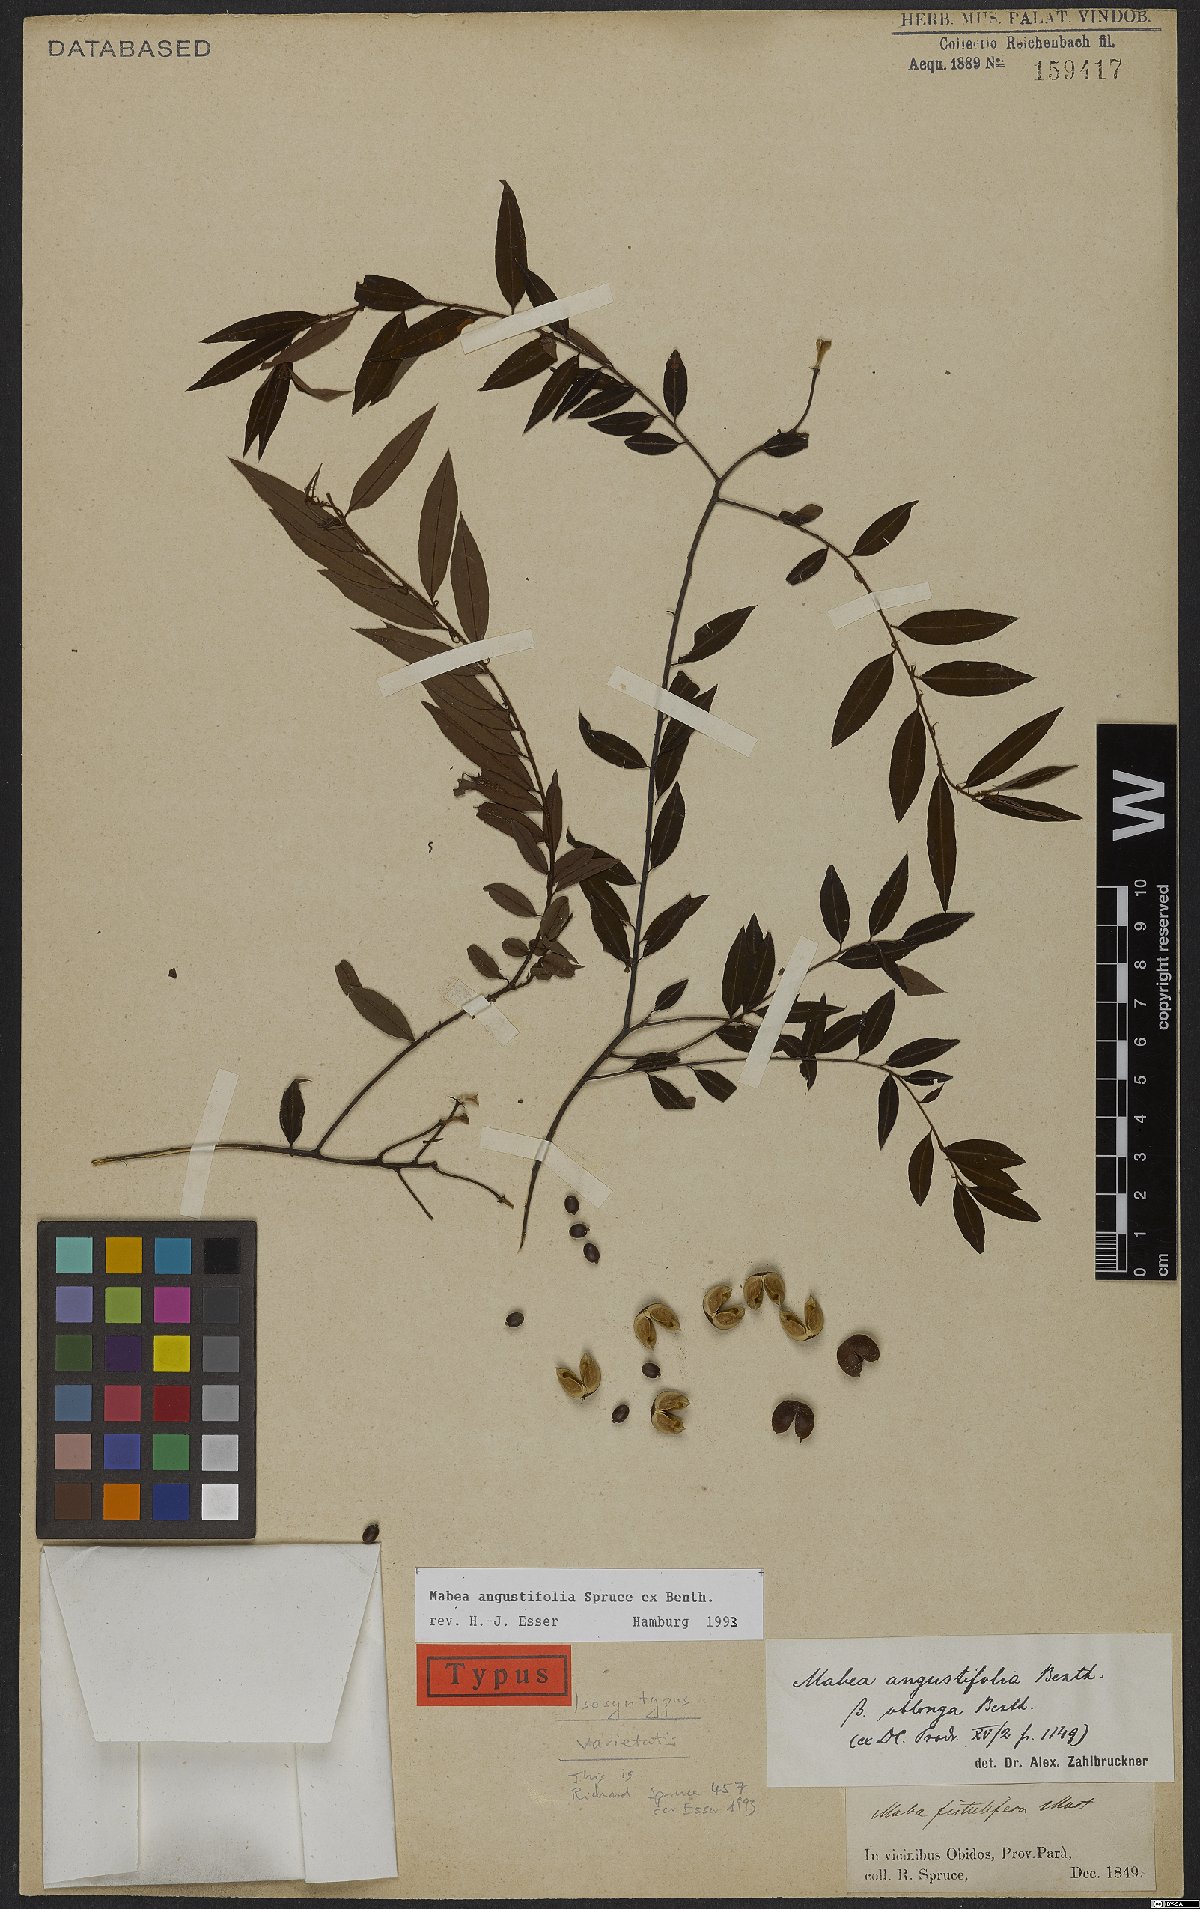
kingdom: Plantae
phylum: Tracheophyta
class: Magnoliopsida
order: Malpighiales
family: Euphorbiaceae
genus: Mabea
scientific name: Mabea angustifolia
